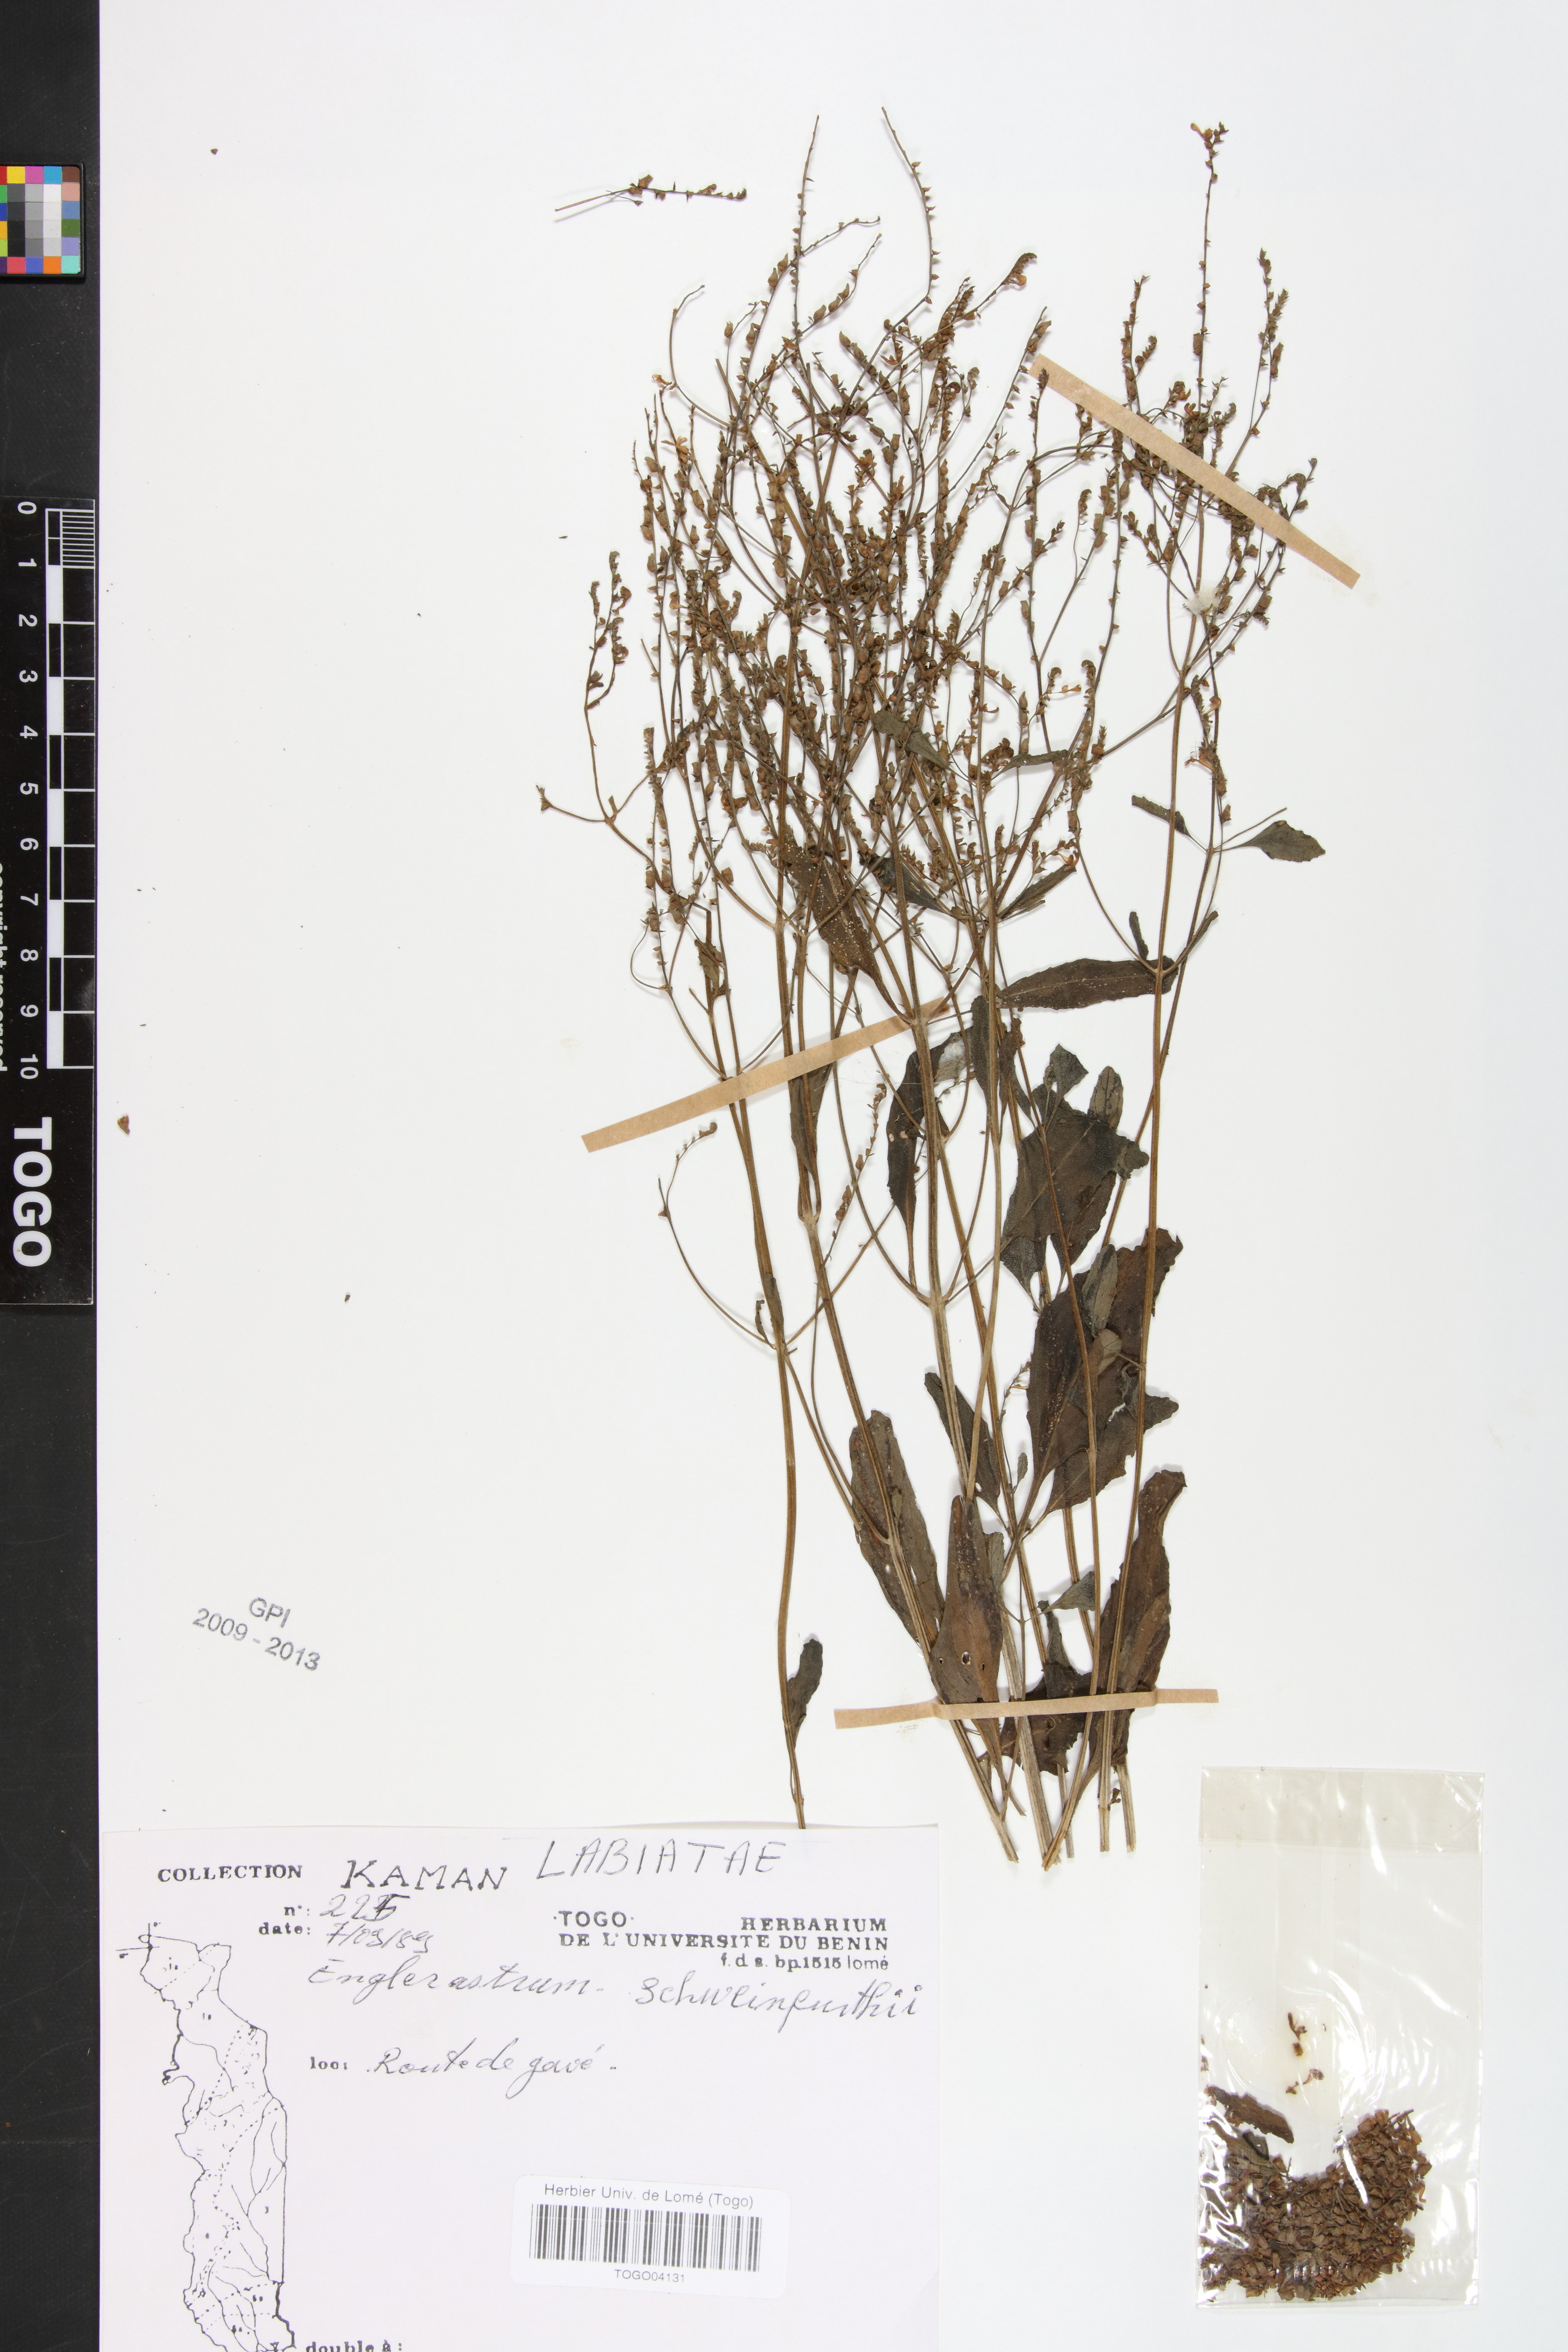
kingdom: Plantae
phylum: Tracheophyta
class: Magnoliopsida
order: Lamiales
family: Lamiaceae
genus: Coleus
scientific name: Coleus rhodesianum
